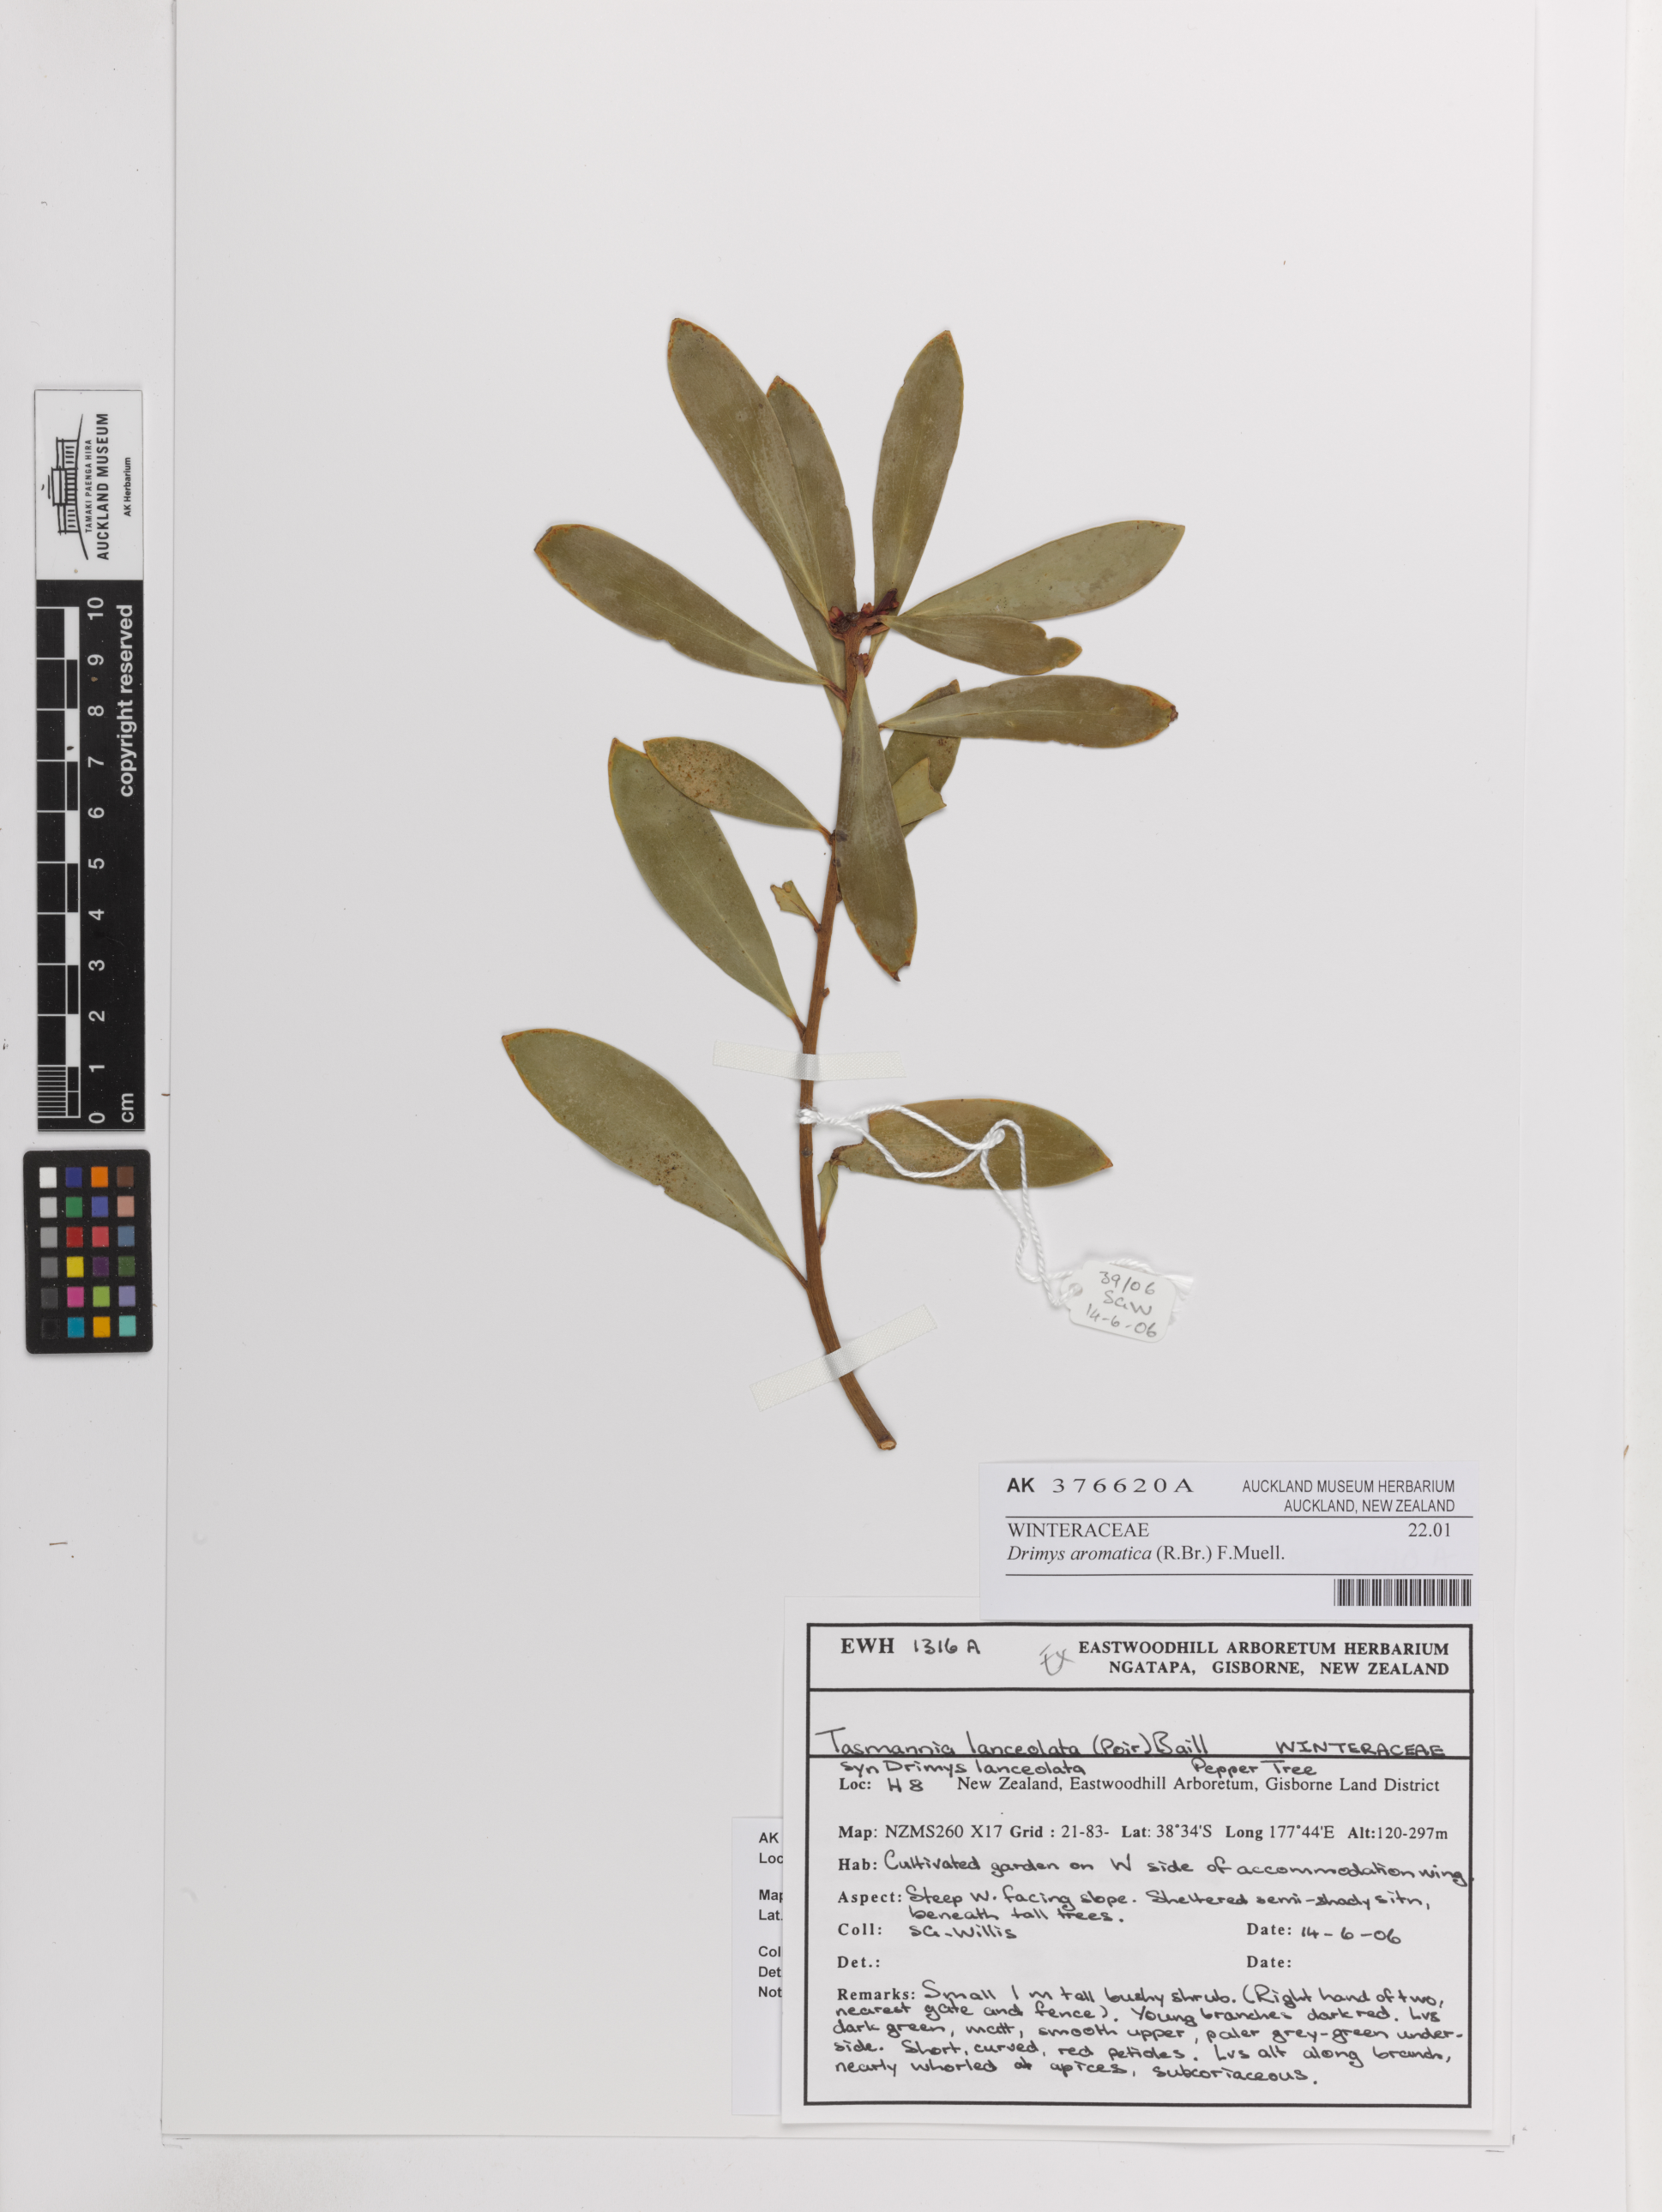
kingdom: Plantae
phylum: Tracheophyta
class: Magnoliopsida
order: Canellales
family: Winteraceae
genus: Drimys
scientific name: Drimys aromatica
